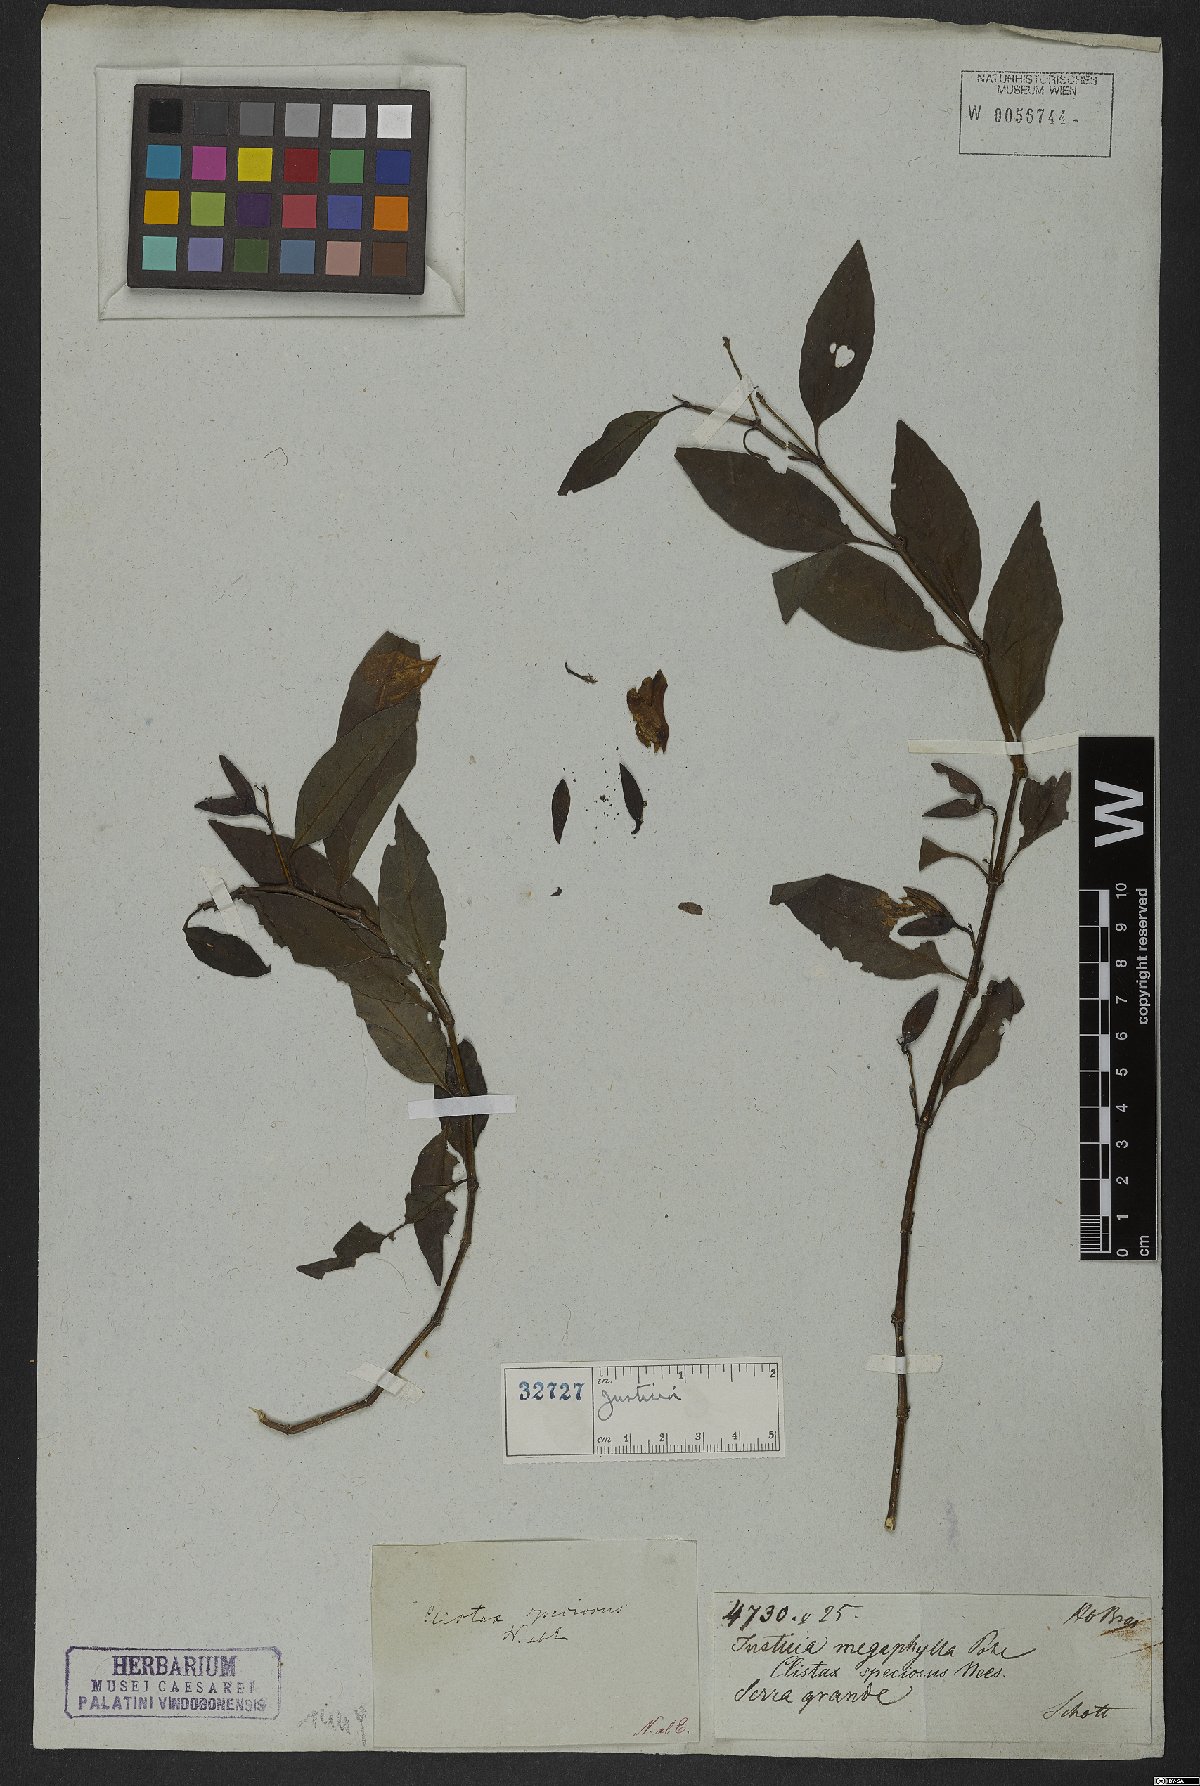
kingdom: Plantae
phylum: Tracheophyta
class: Magnoliopsida
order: Lamiales
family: Acanthaceae
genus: Clistax
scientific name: Clistax speciosus
